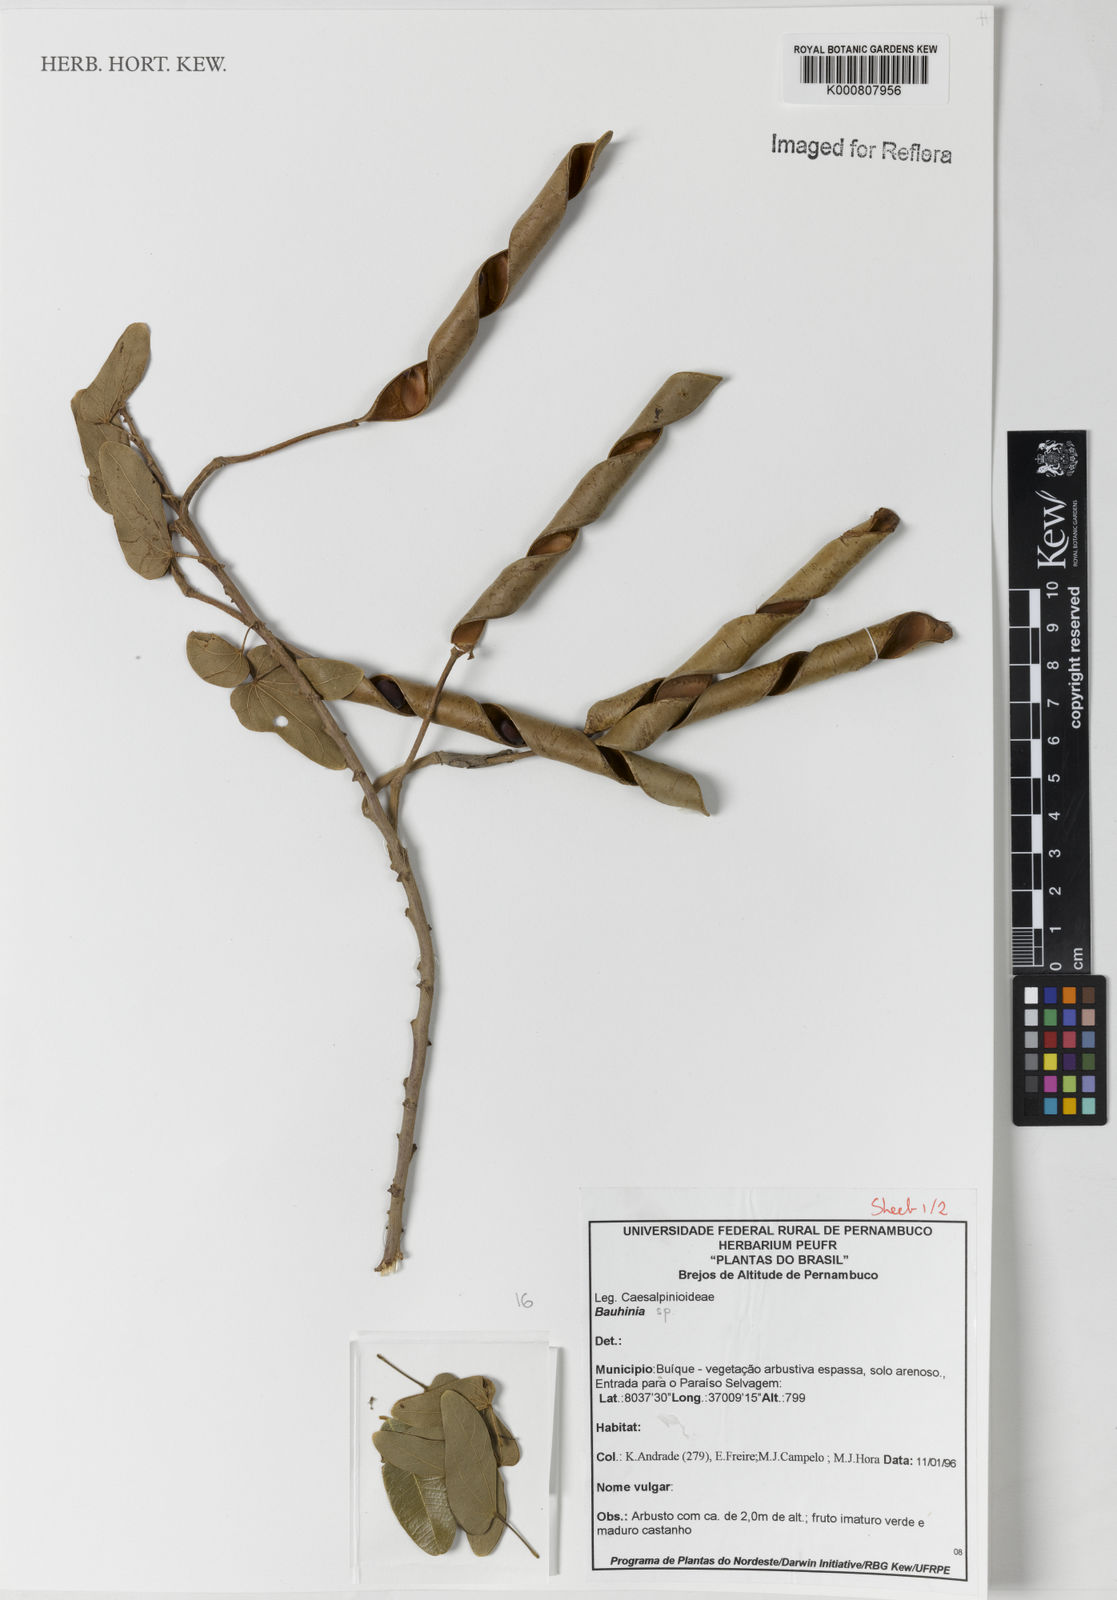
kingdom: Plantae
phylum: Tracheophyta
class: Magnoliopsida
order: Fabales
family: Fabaceae
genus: Bauhinia
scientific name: Bauhinia
